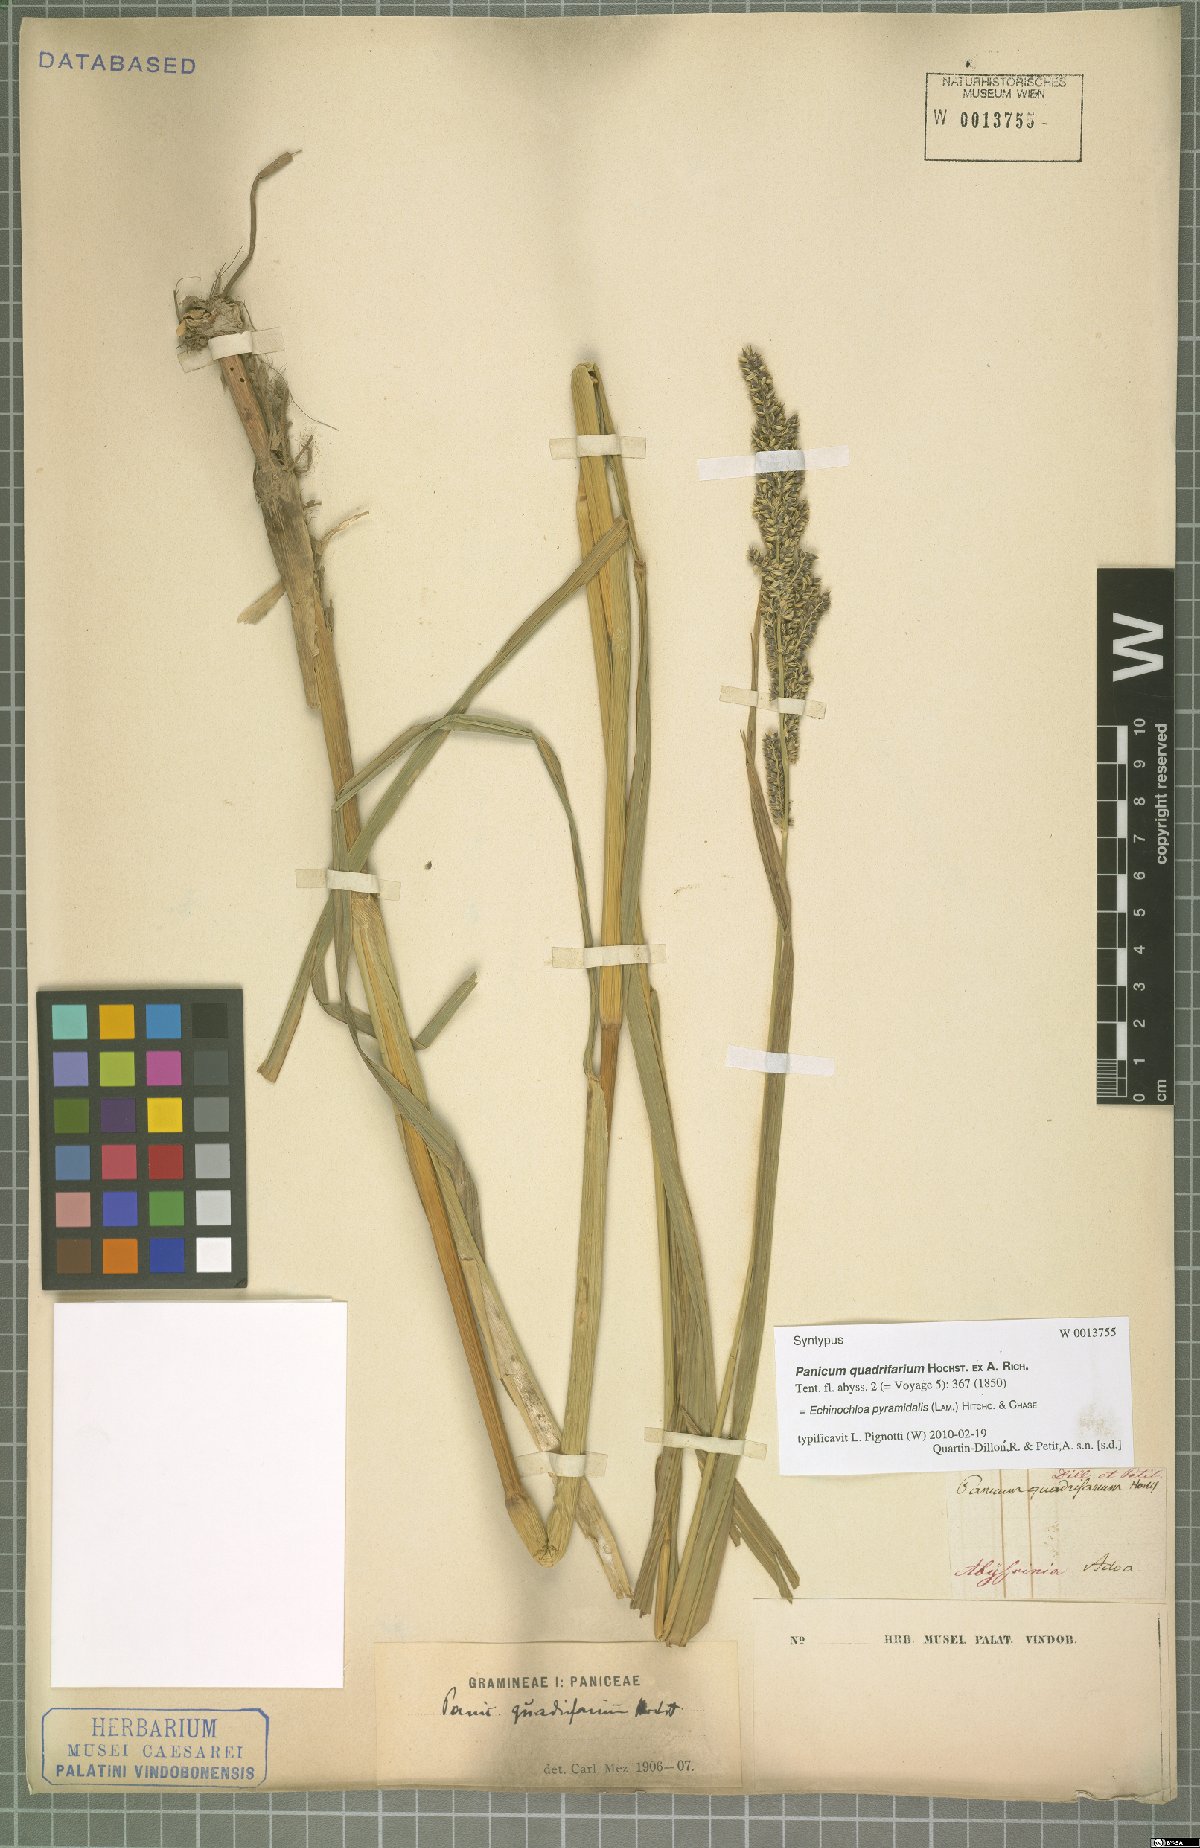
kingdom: Plantae
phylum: Tracheophyta
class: Liliopsida
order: Poales
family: Poaceae
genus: Echinochloa
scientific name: Echinochloa pyramidalis
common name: Antelope grass
